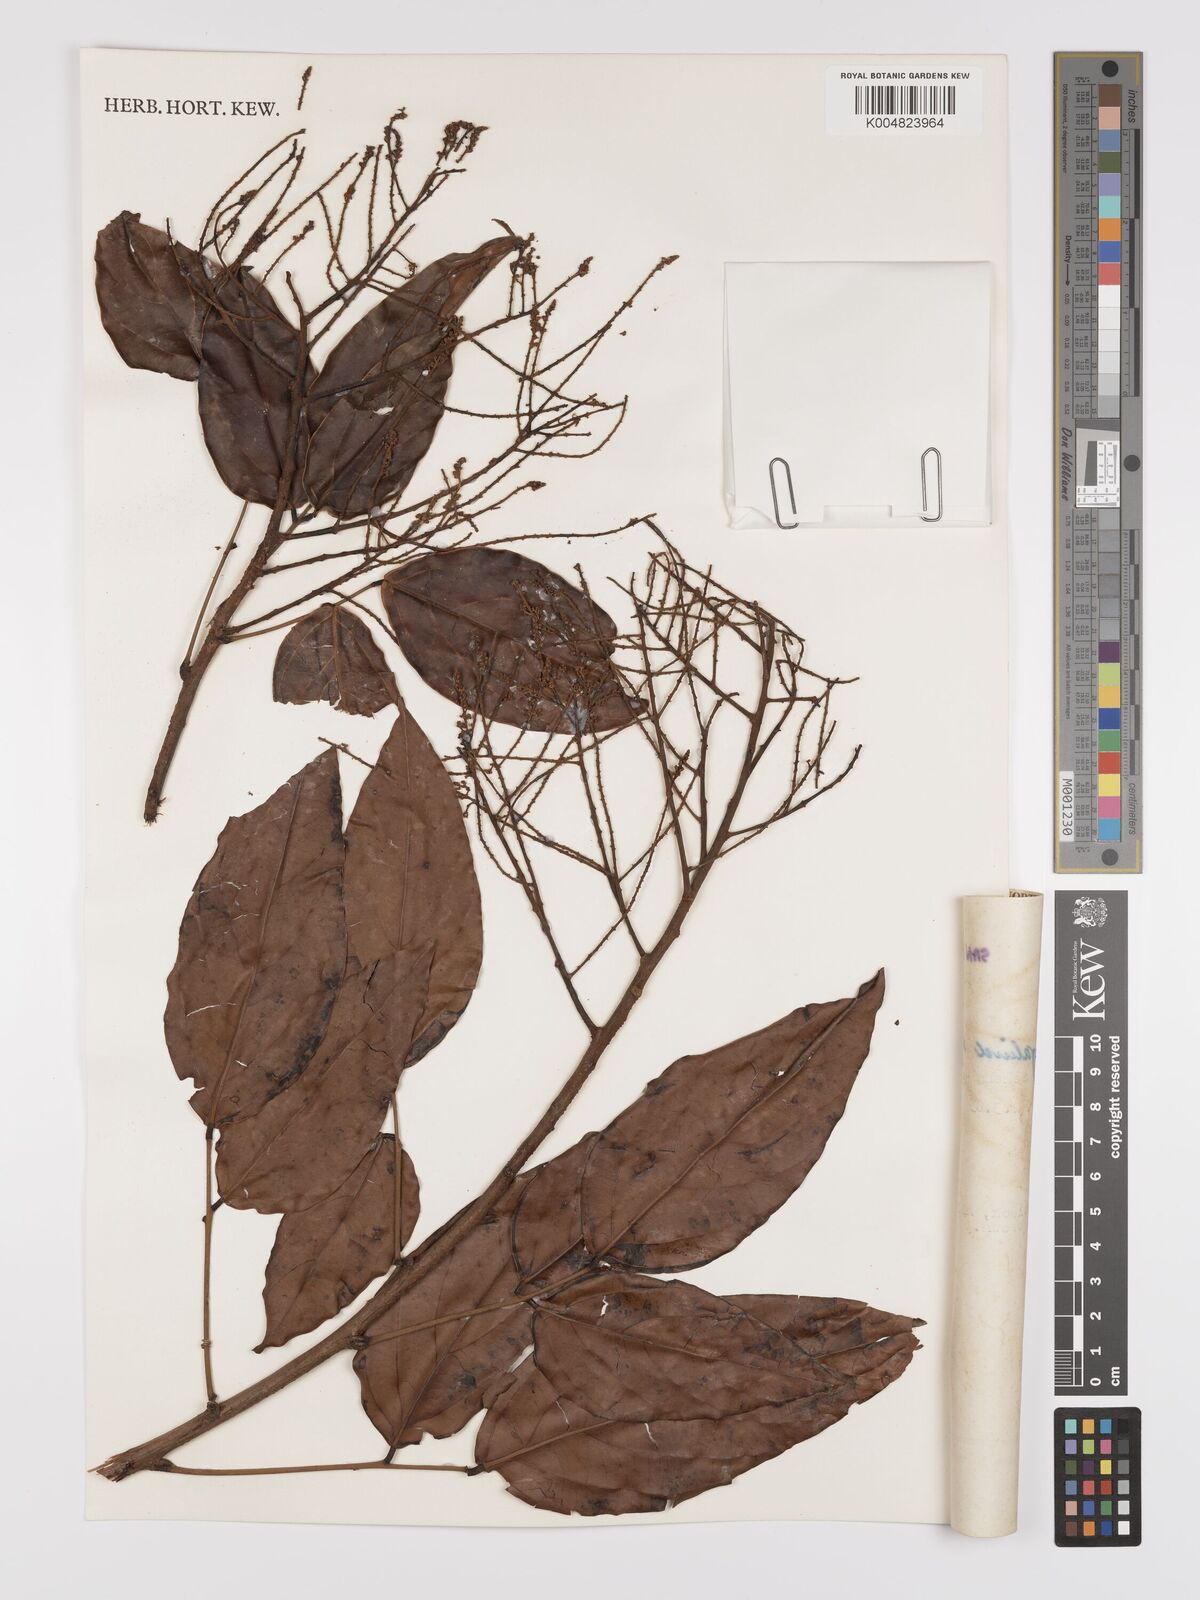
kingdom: Plantae
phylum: Tracheophyta
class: Magnoliopsida
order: Oxalidales
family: Connaraceae
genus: Connarus
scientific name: Connarus semidecandrus
